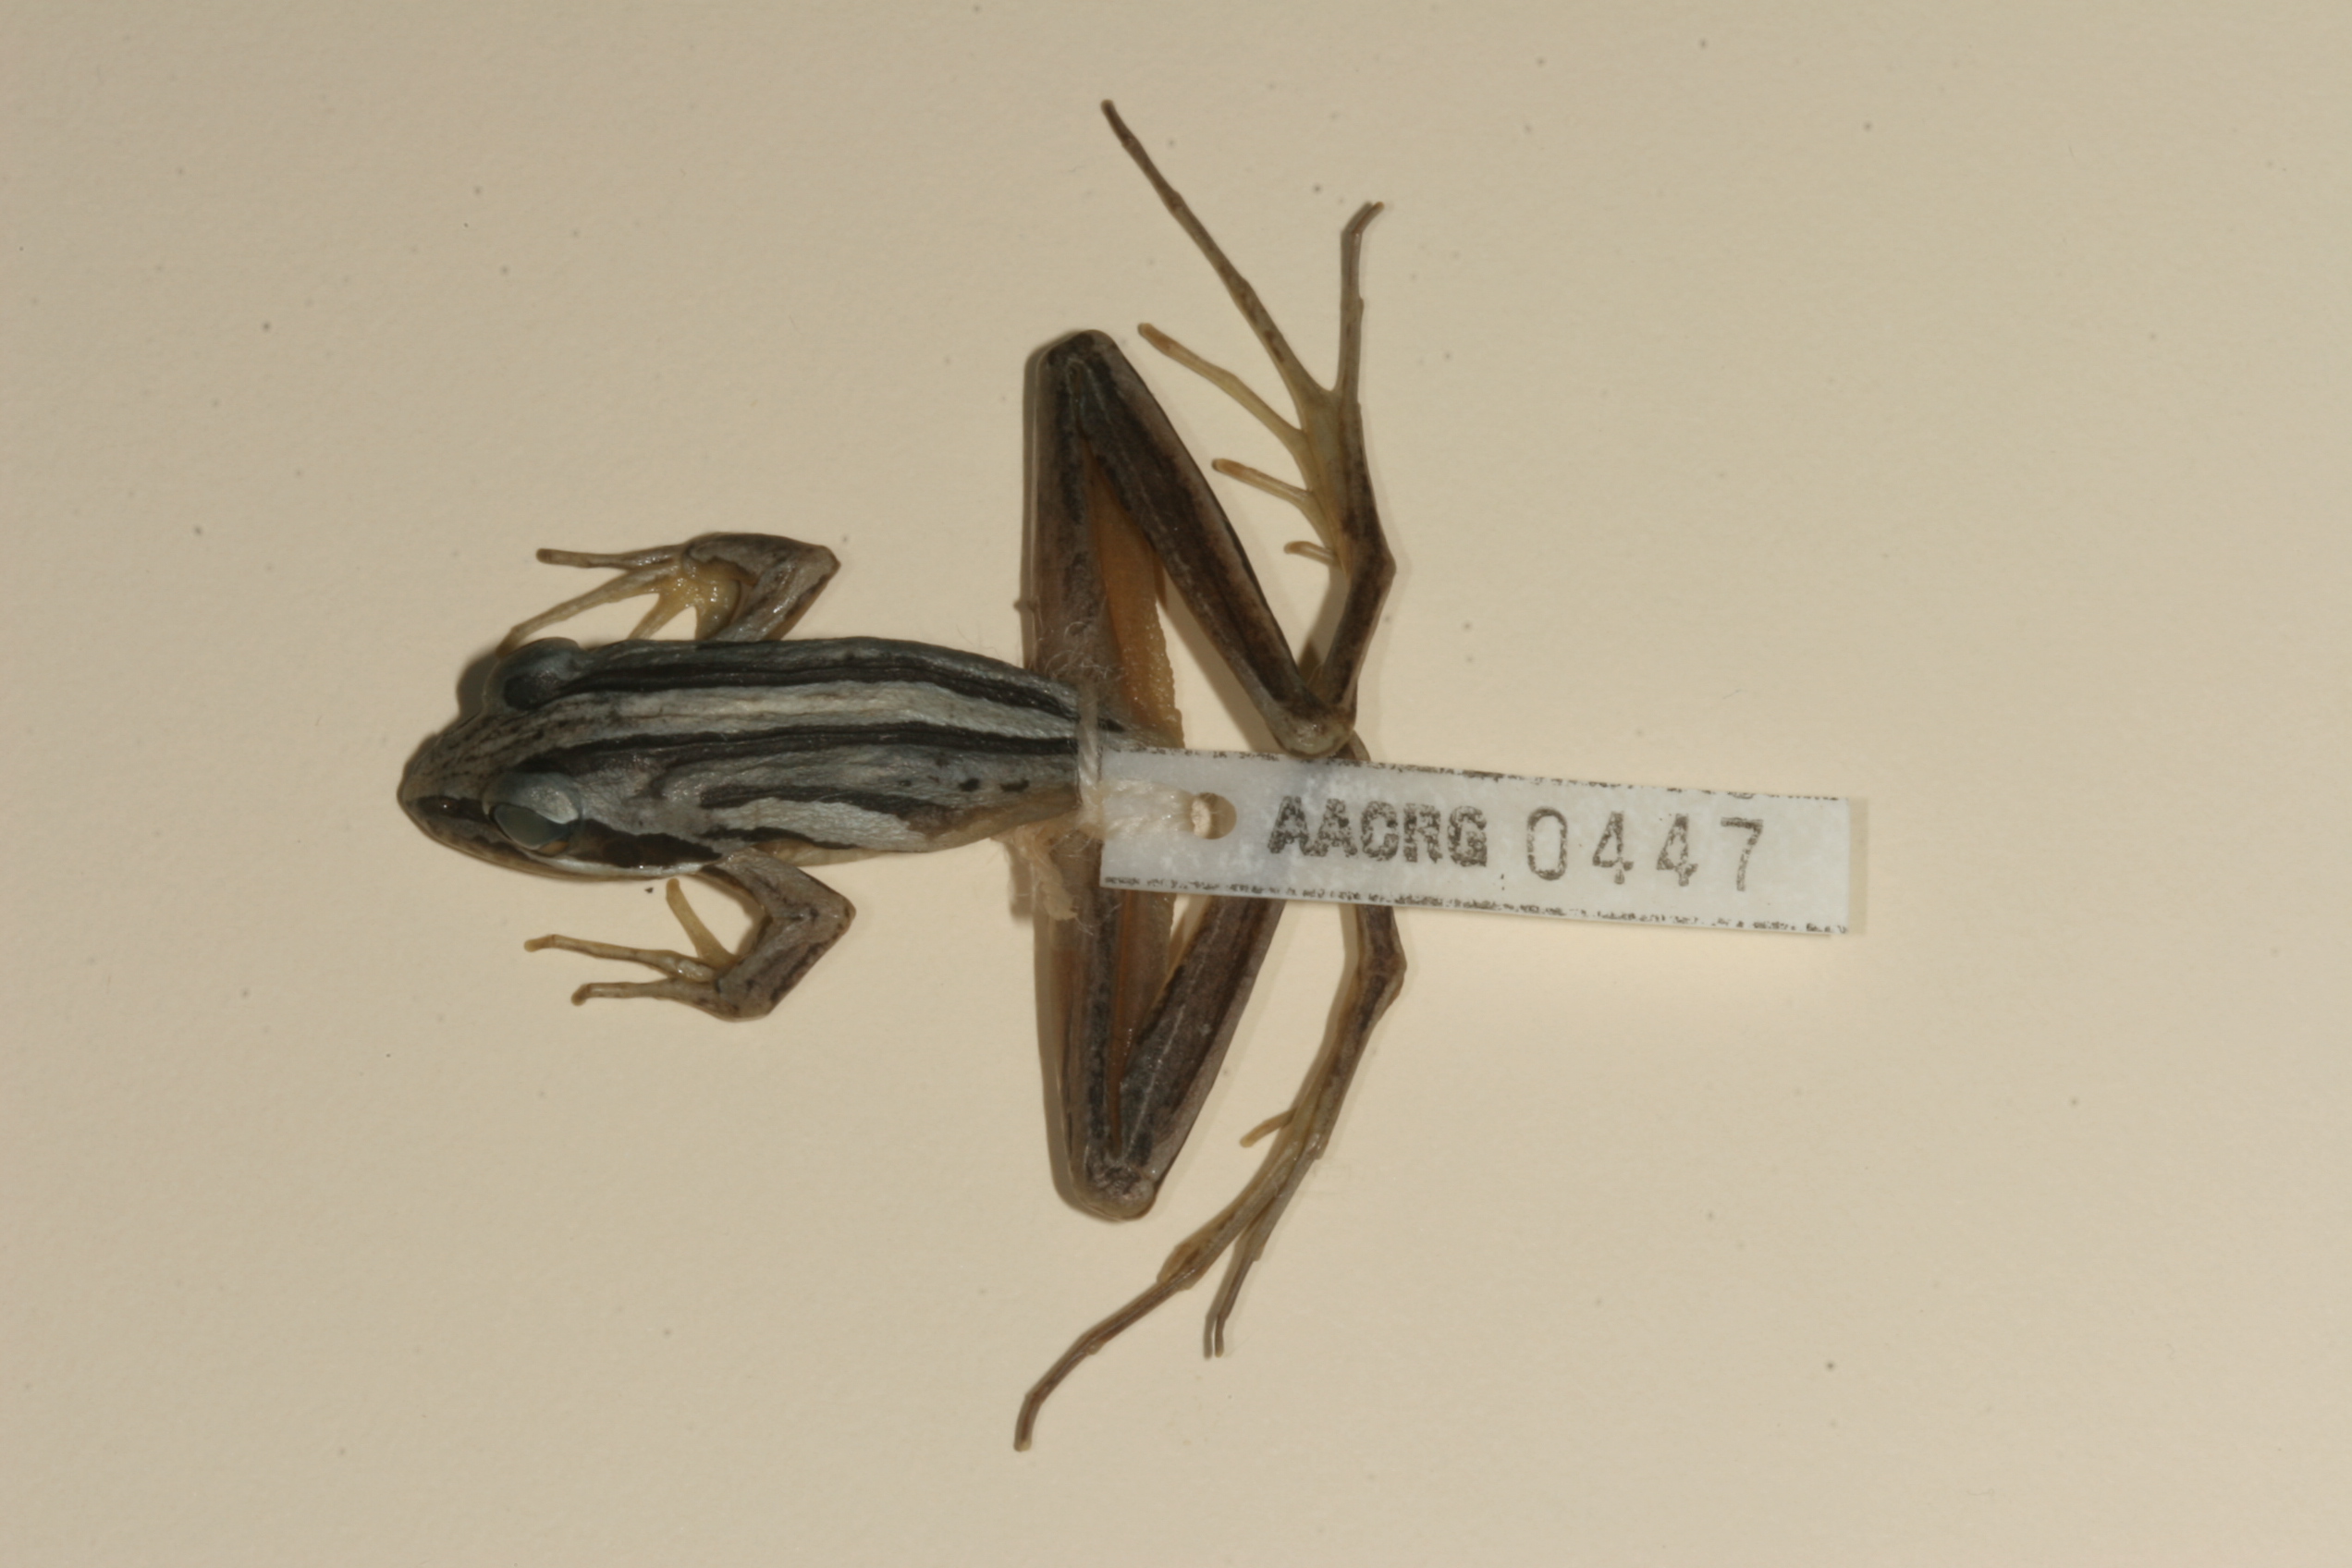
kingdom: Animalia
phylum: Chordata
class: Amphibia
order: Anura
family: Pyxicephalidae
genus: Strongylopus
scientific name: Strongylopus fasciatus
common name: Striped stream frog
